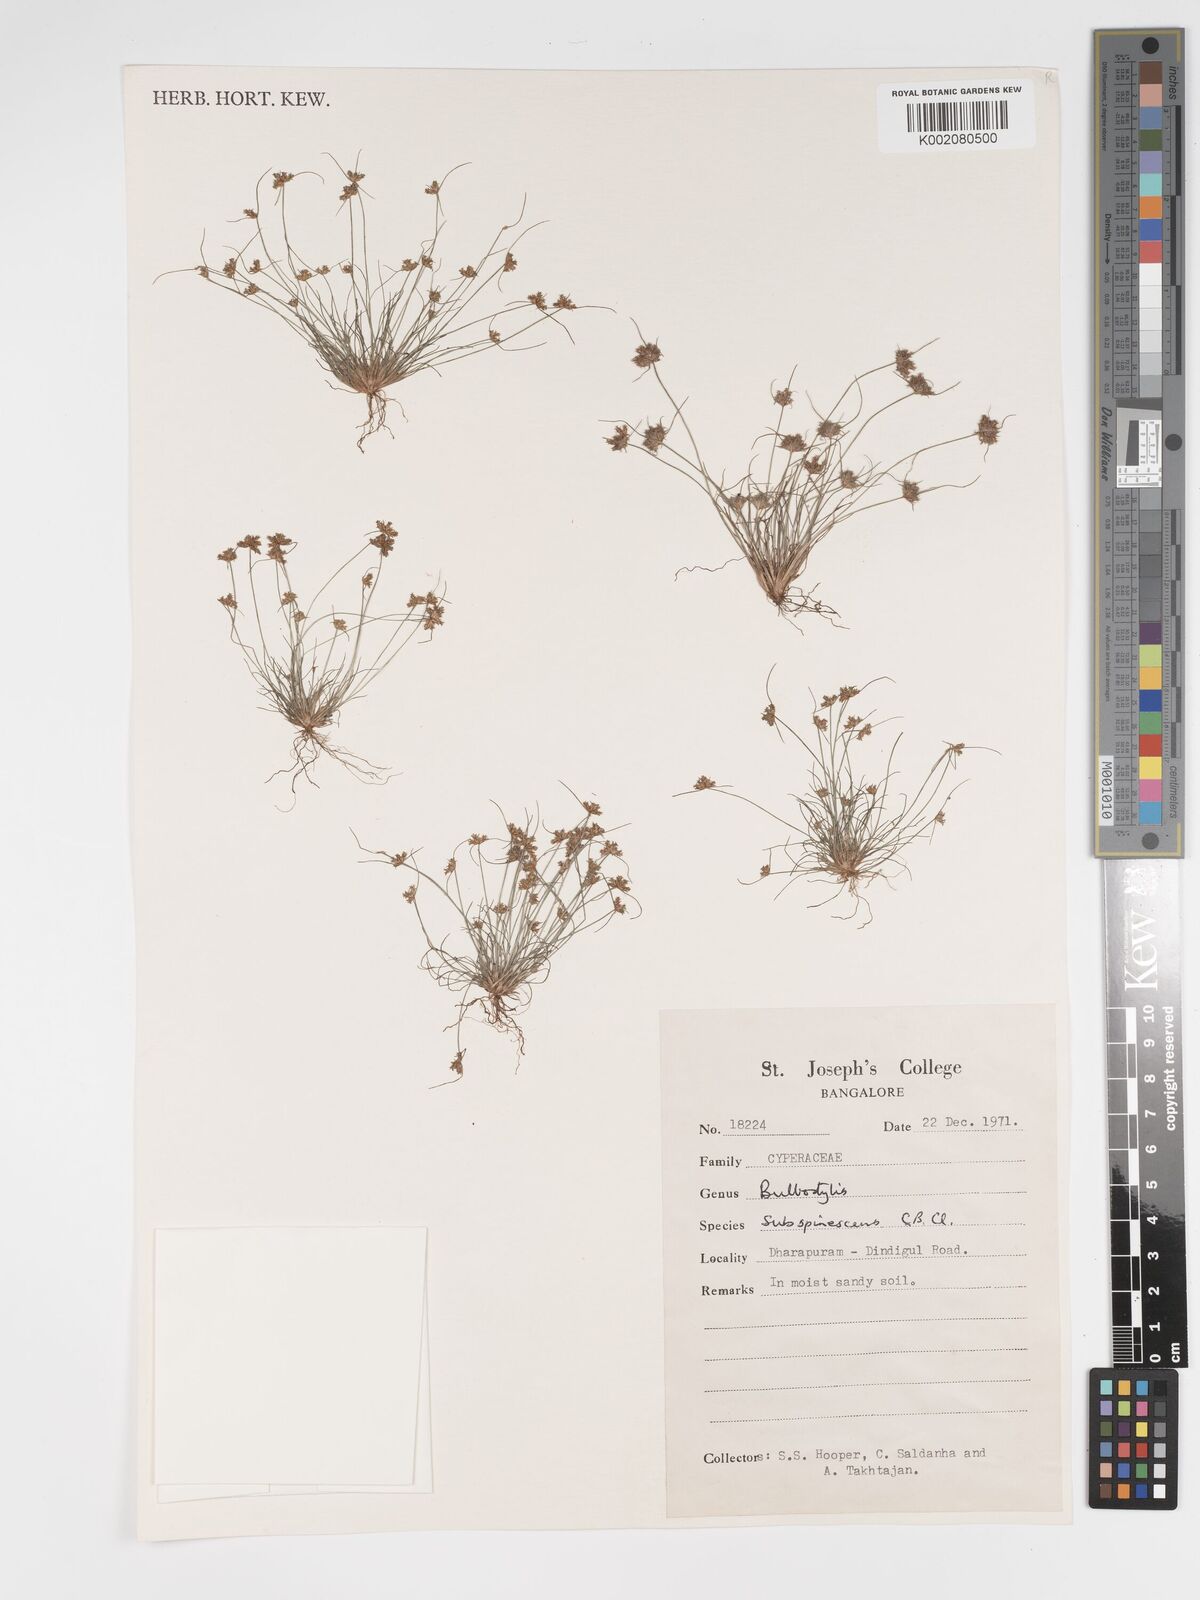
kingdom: Plantae
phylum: Tracheophyta
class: Liliopsida
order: Poales
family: Cyperaceae
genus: Bulbostylis
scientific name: Bulbostylis subspinescens
